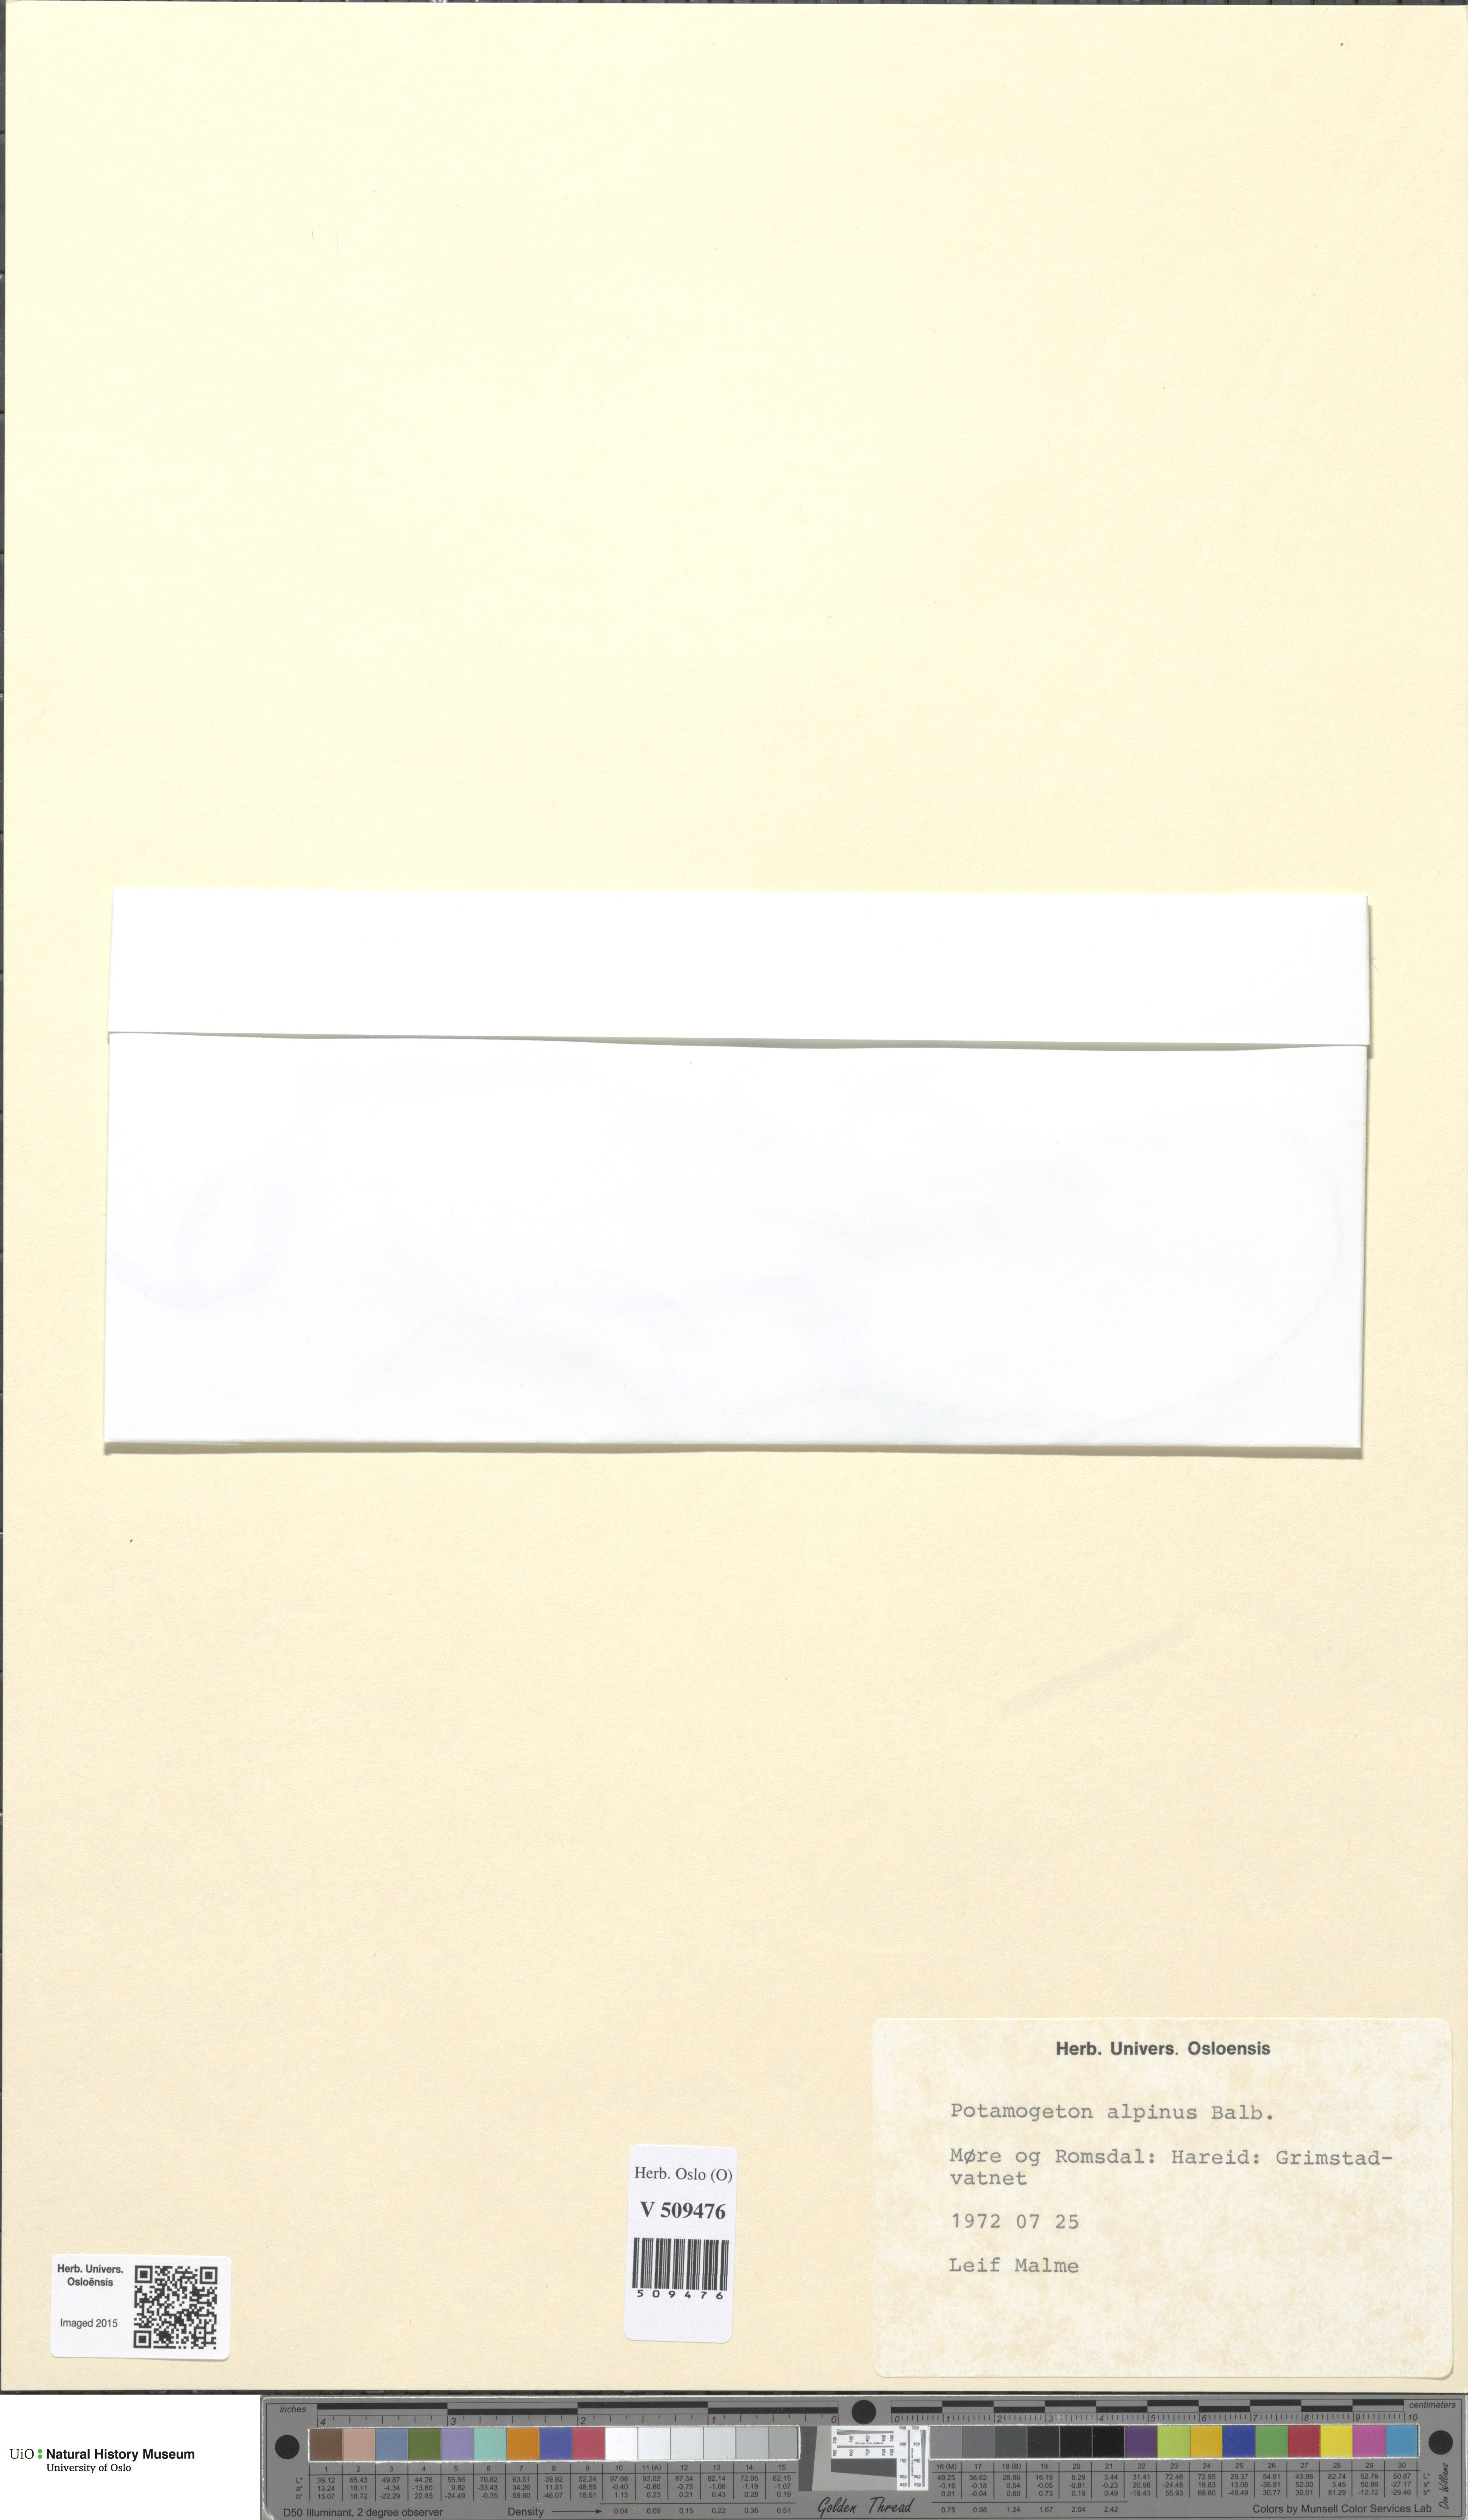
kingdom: Plantae
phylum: Tracheophyta
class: Liliopsida
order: Alismatales
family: Potamogetonaceae
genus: Potamogeton
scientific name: Potamogeton alpinus
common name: Red pondweed
